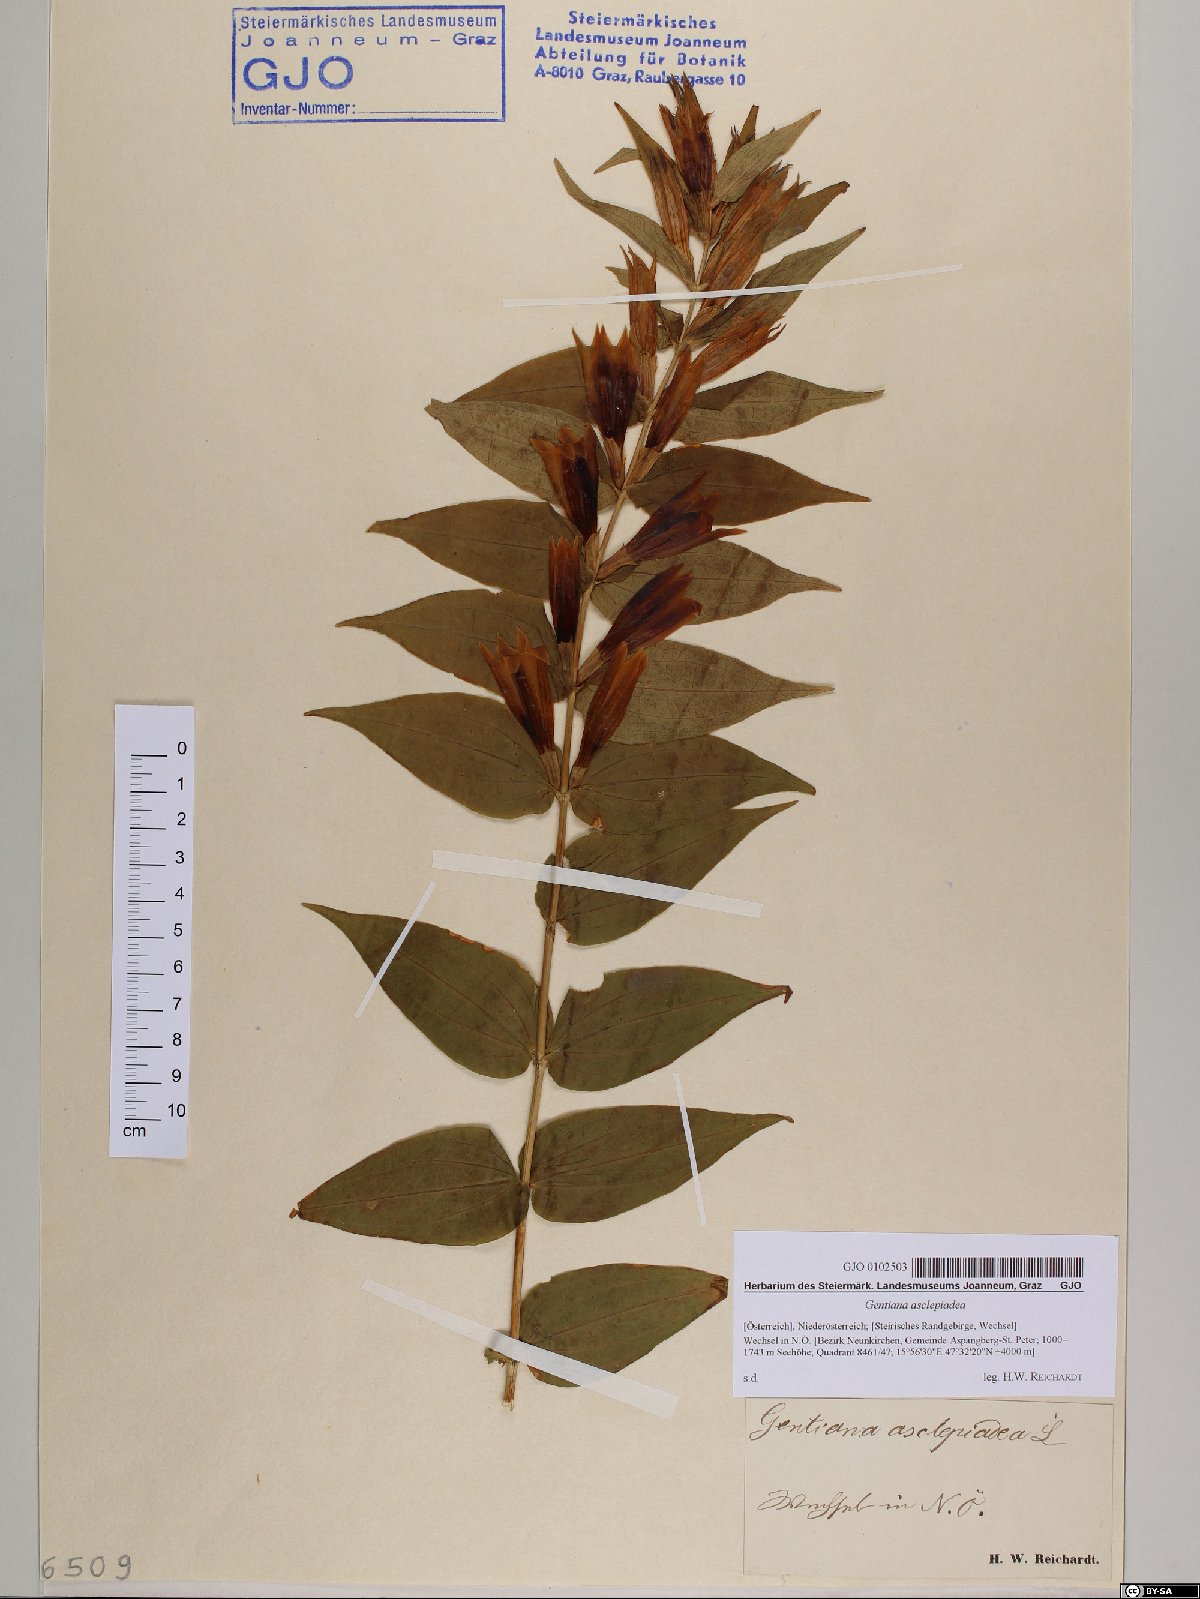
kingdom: Plantae
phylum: Tracheophyta
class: Magnoliopsida
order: Gentianales
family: Gentianaceae
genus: Gentiana
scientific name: Gentiana asclepiadea
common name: Willow gentian
